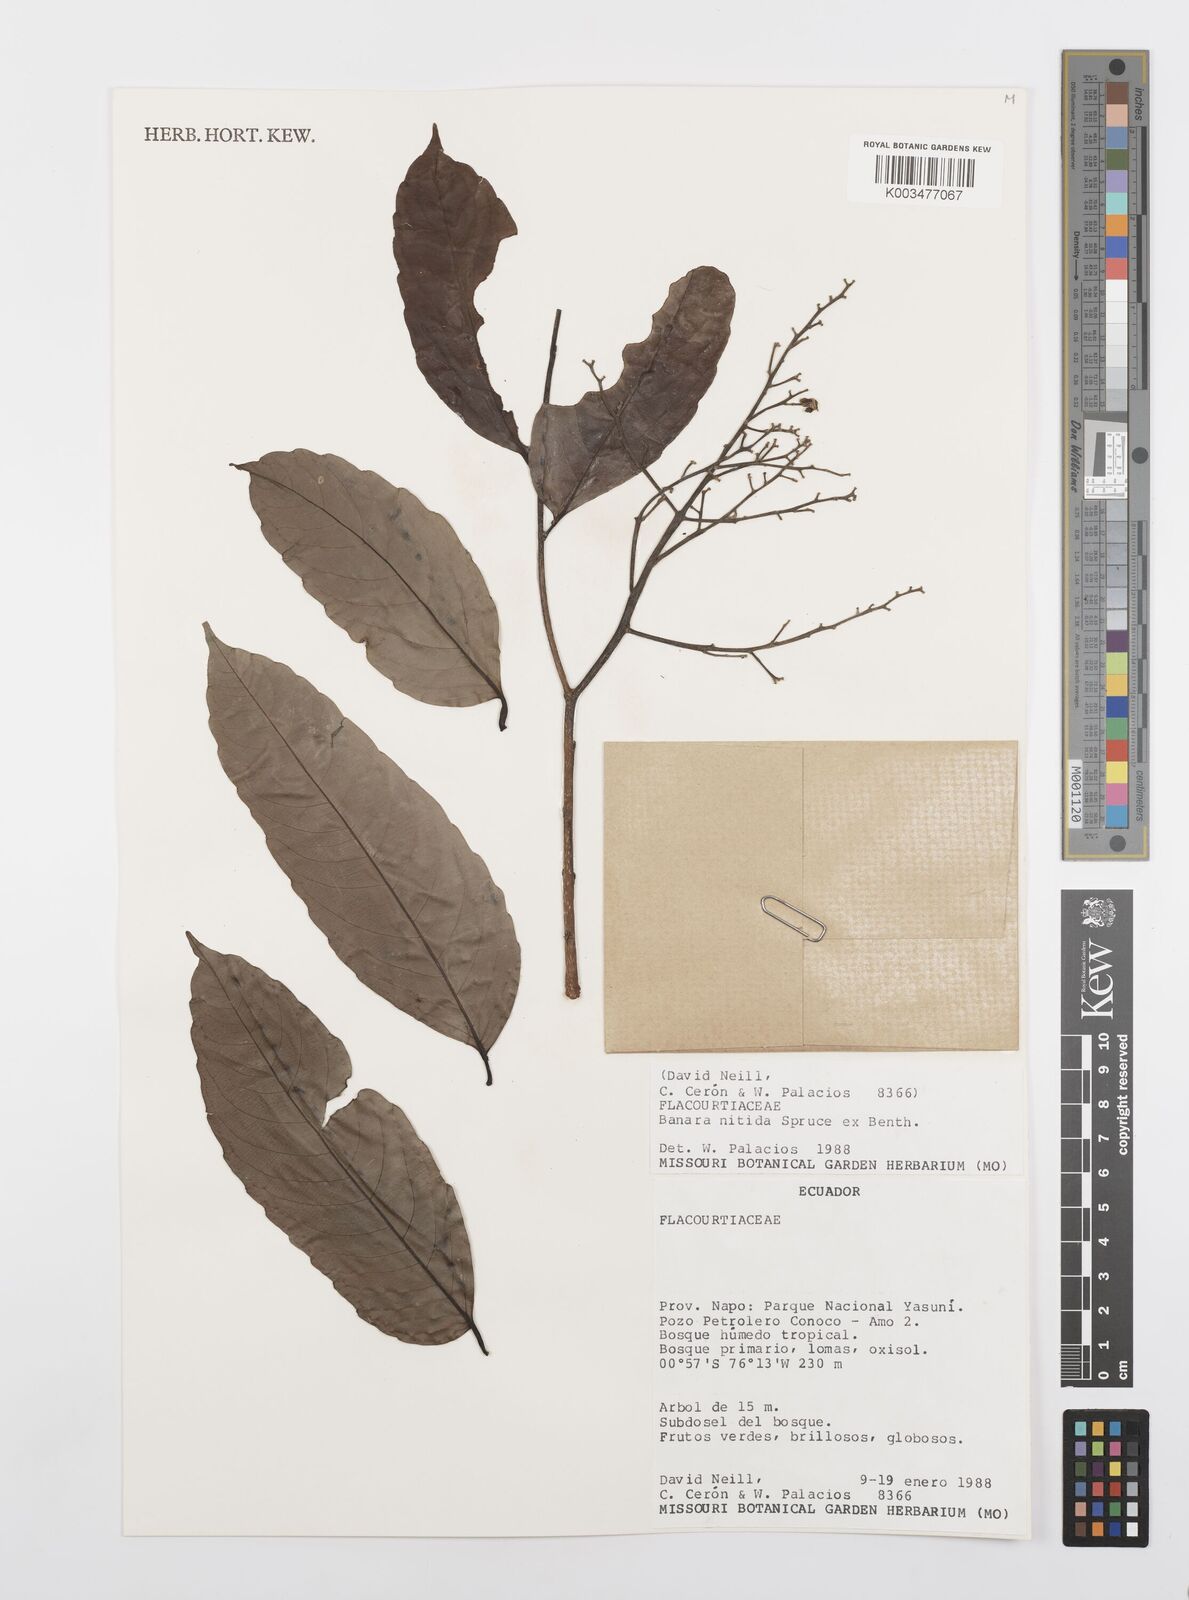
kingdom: Plantae
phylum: Tracheophyta
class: Magnoliopsida
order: Malpighiales
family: Salicaceae
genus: Banara
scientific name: Banara nitida
